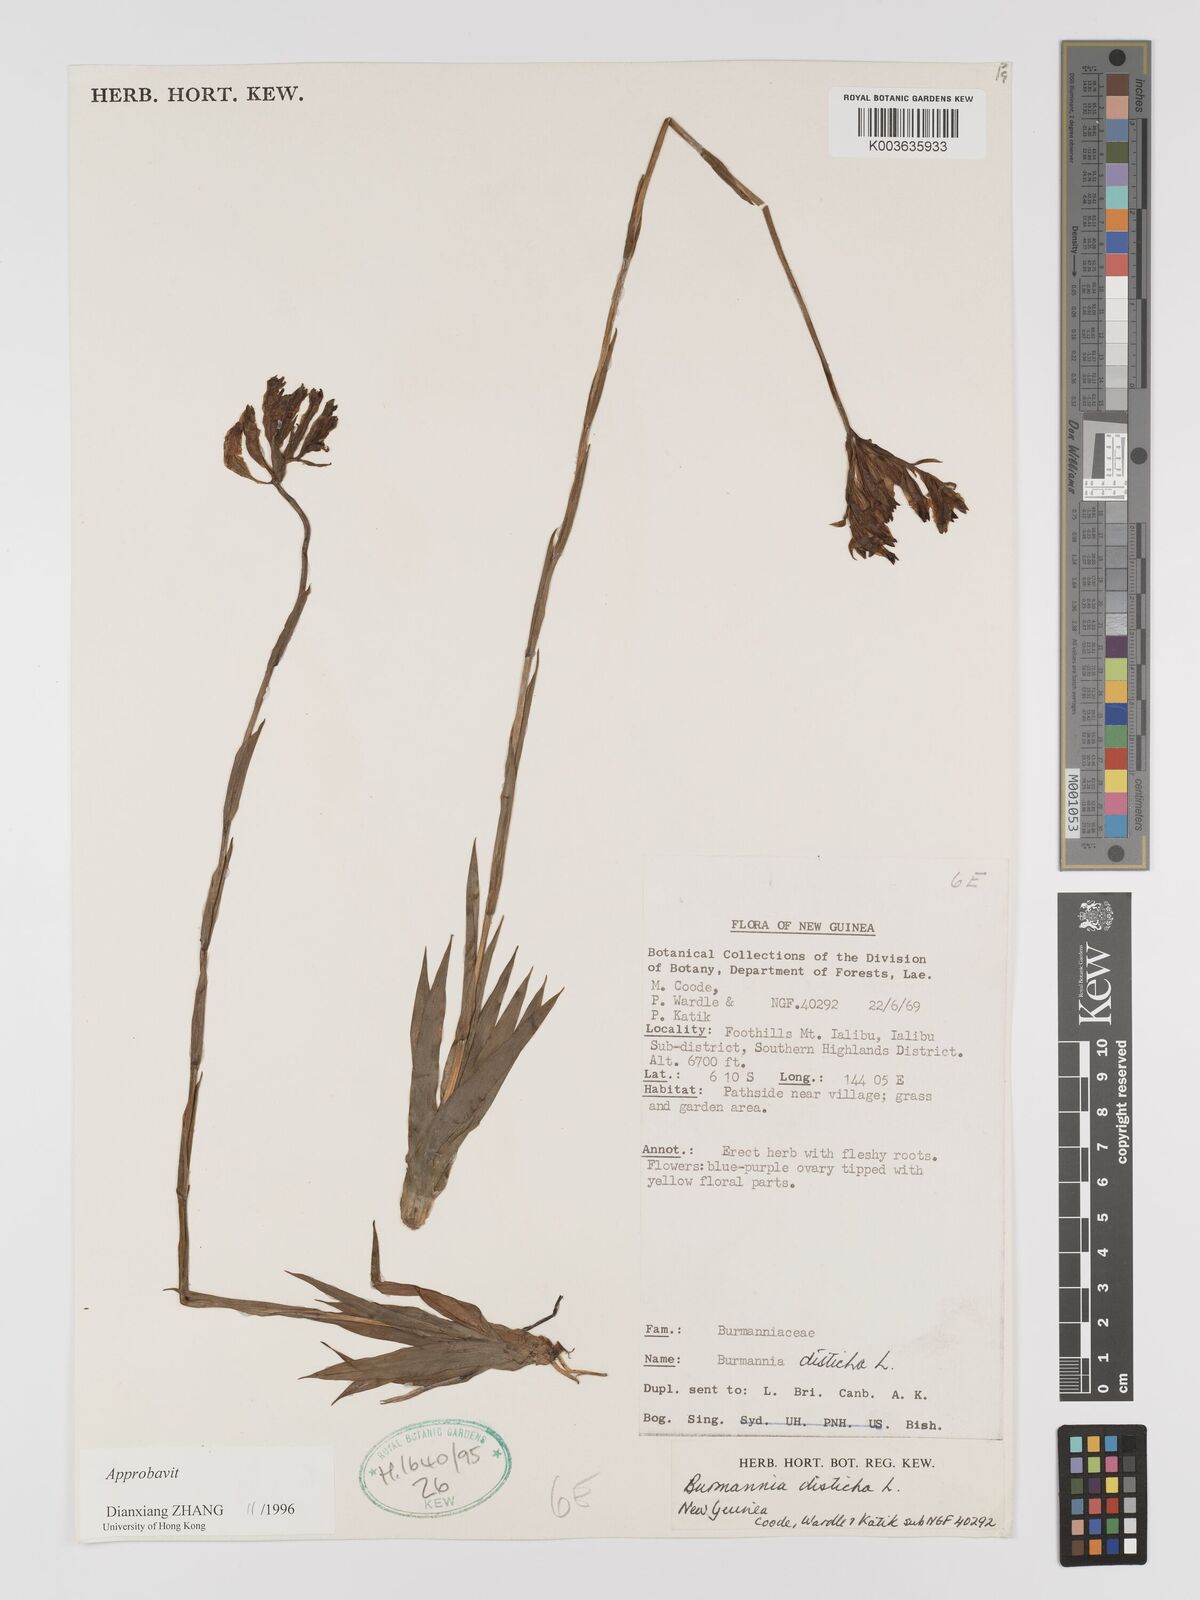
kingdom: Plantae
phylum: Tracheophyta
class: Liliopsida
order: Dioscoreales
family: Burmanniaceae
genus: Burmannia
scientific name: Burmannia disticha
